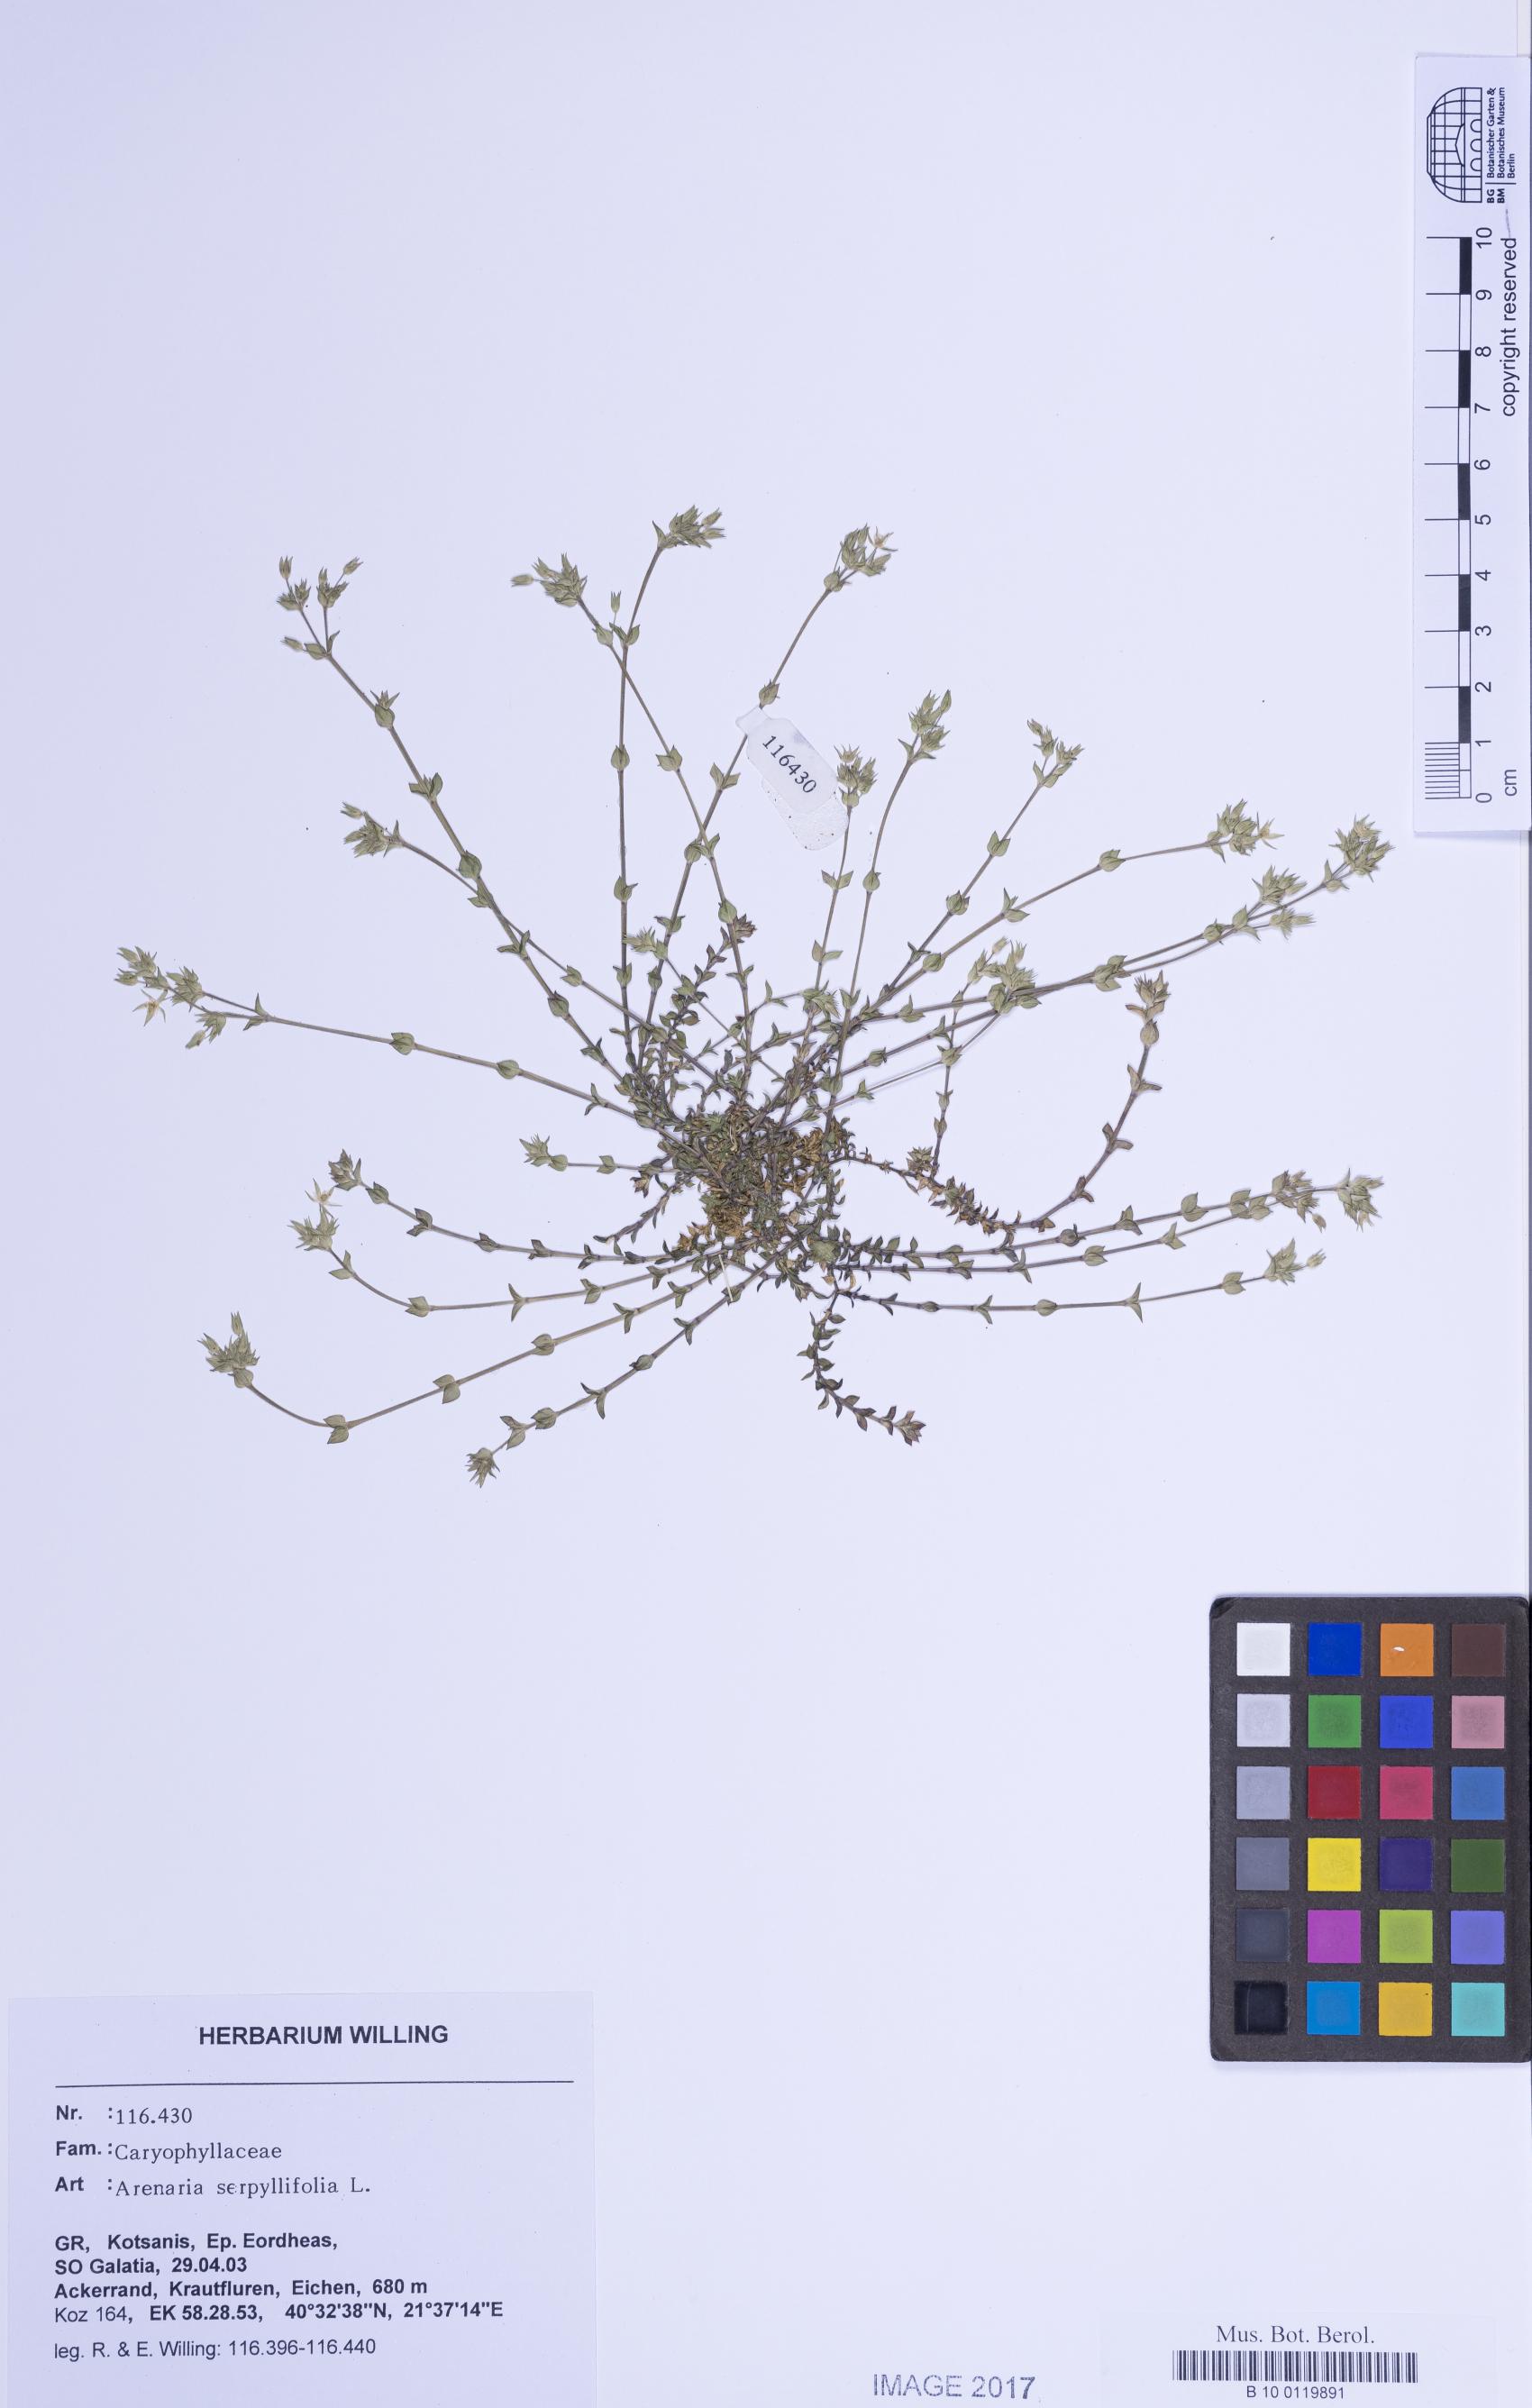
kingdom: Plantae
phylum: Tracheophyta
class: Magnoliopsida
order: Caryophyllales
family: Caryophyllaceae
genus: Arenaria
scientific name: Arenaria serpyllifolia
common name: Thyme-leaved sandwort
